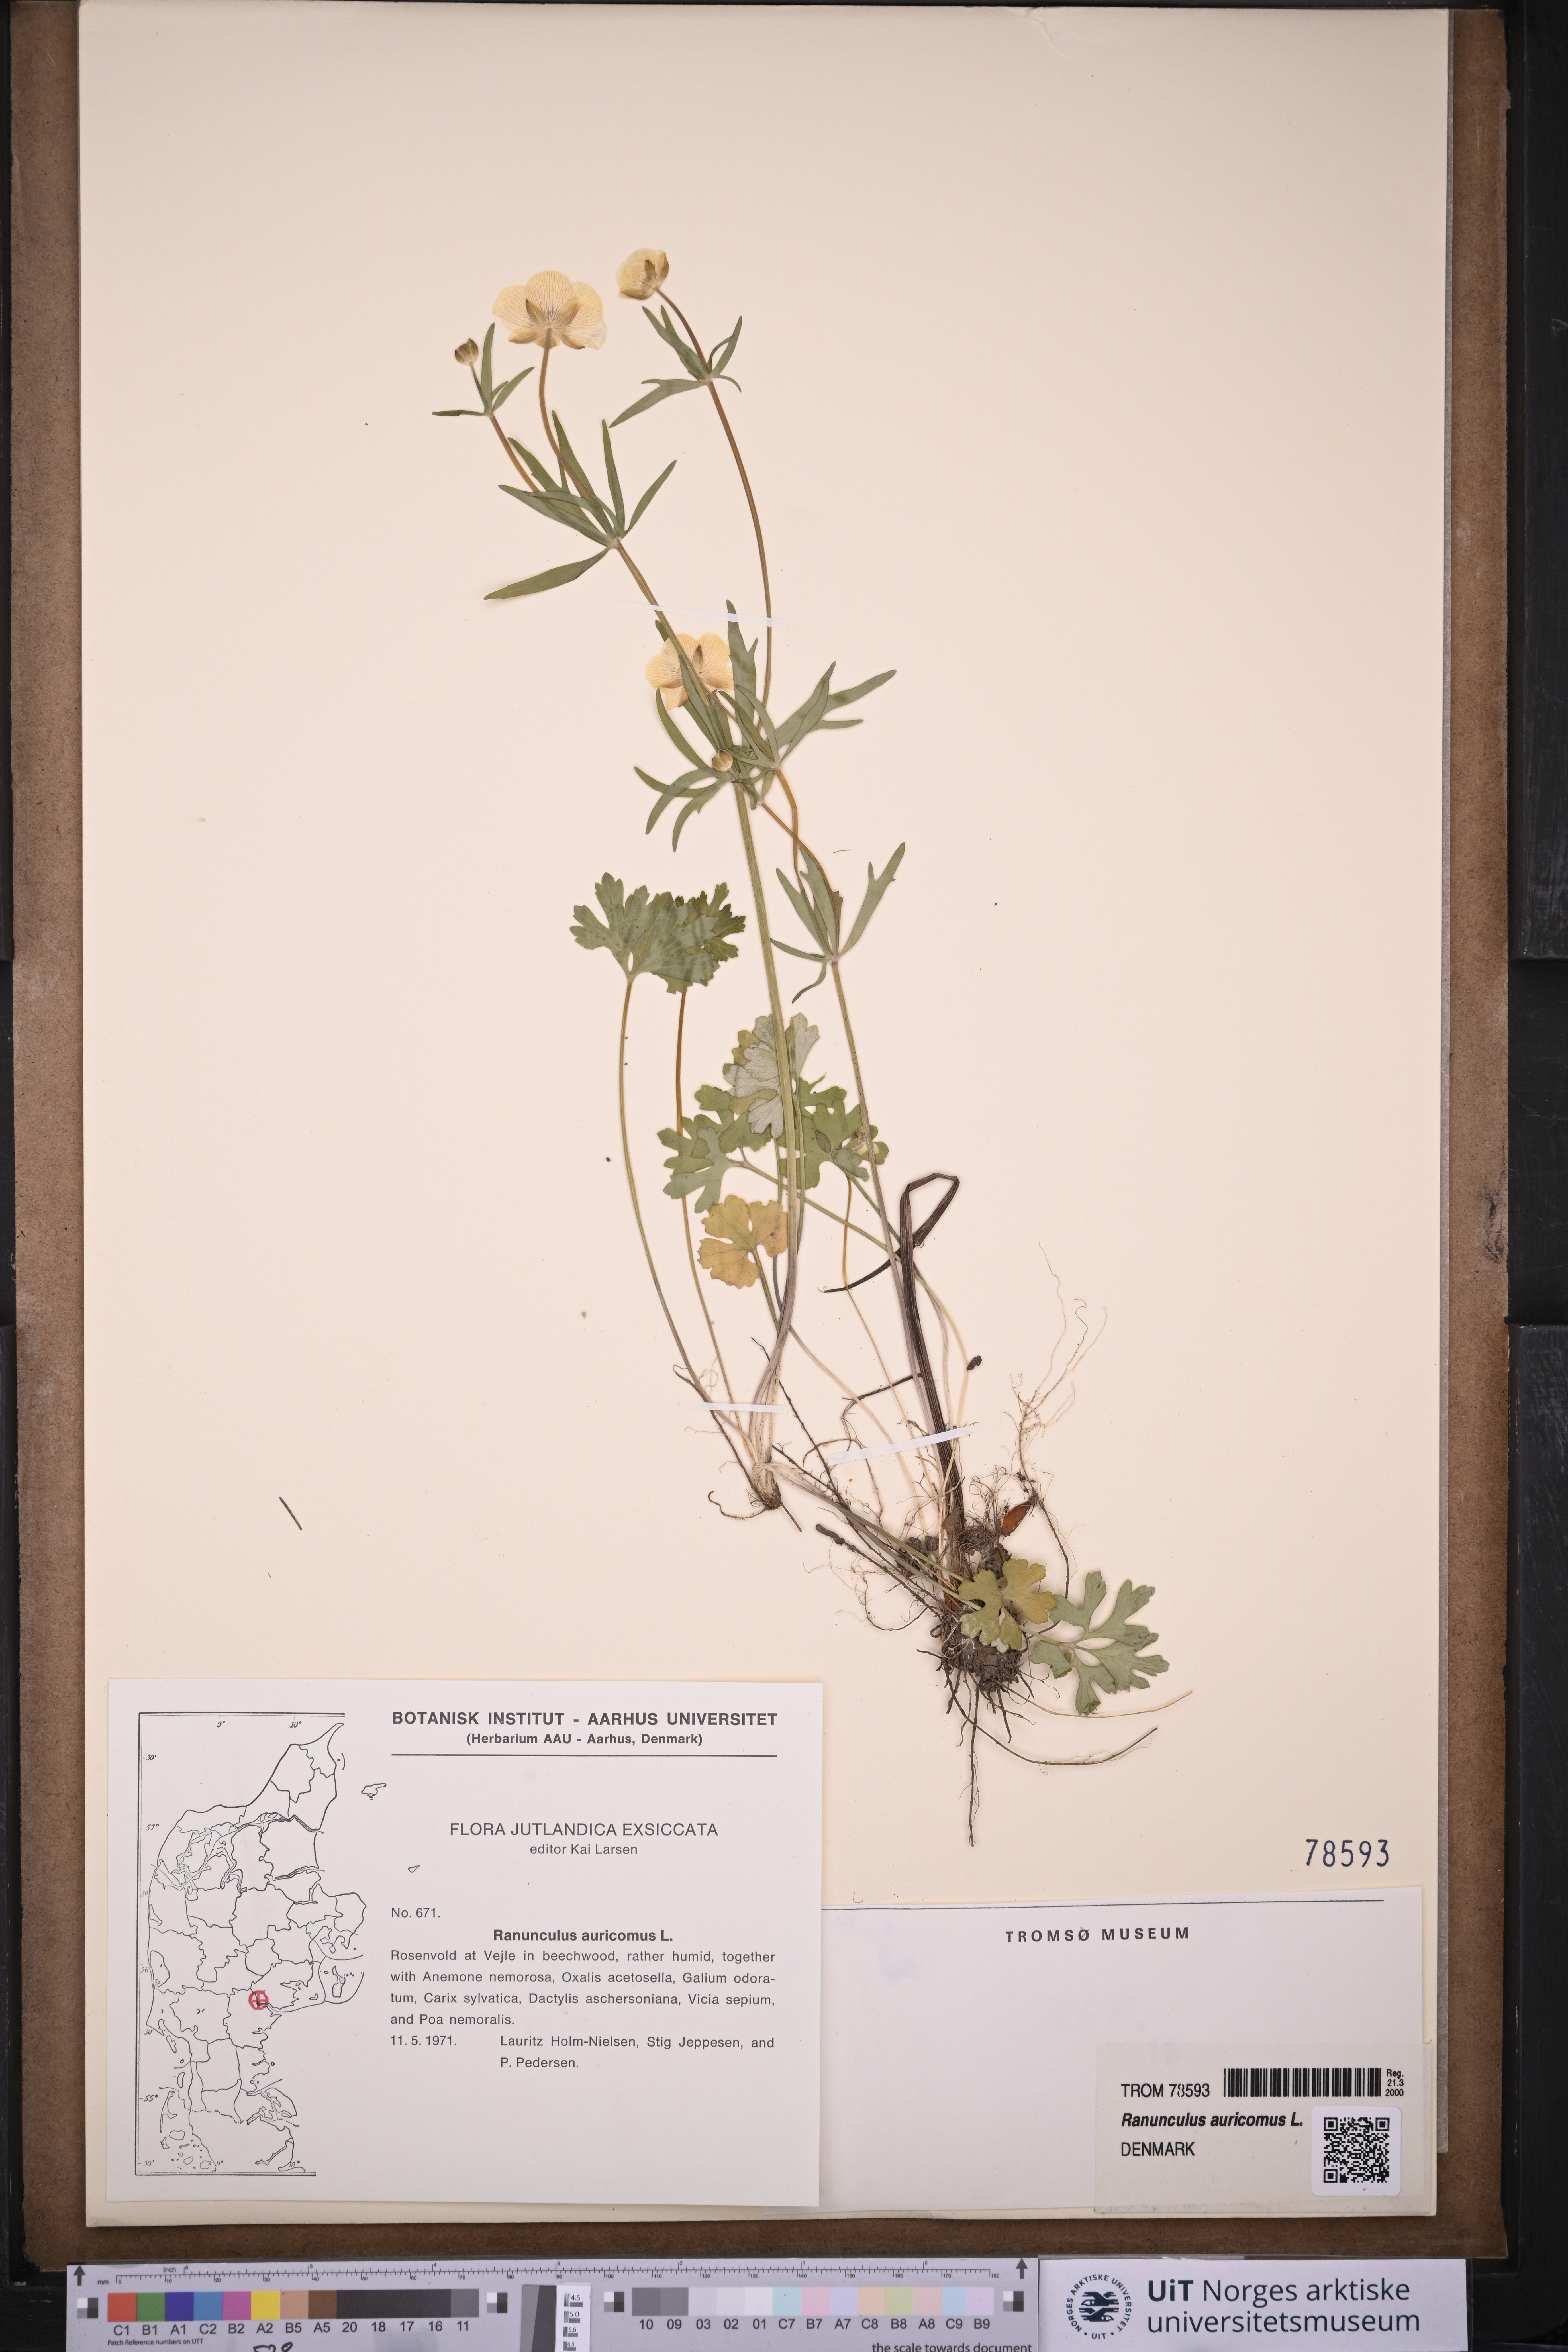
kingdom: Plantae
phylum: Tracheophyta
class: Magnoliopsida
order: Ranunculales
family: Ranunculaceae
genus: Ranunculus
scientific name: Ranunculus auricomus
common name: Goldilocks buttercup
